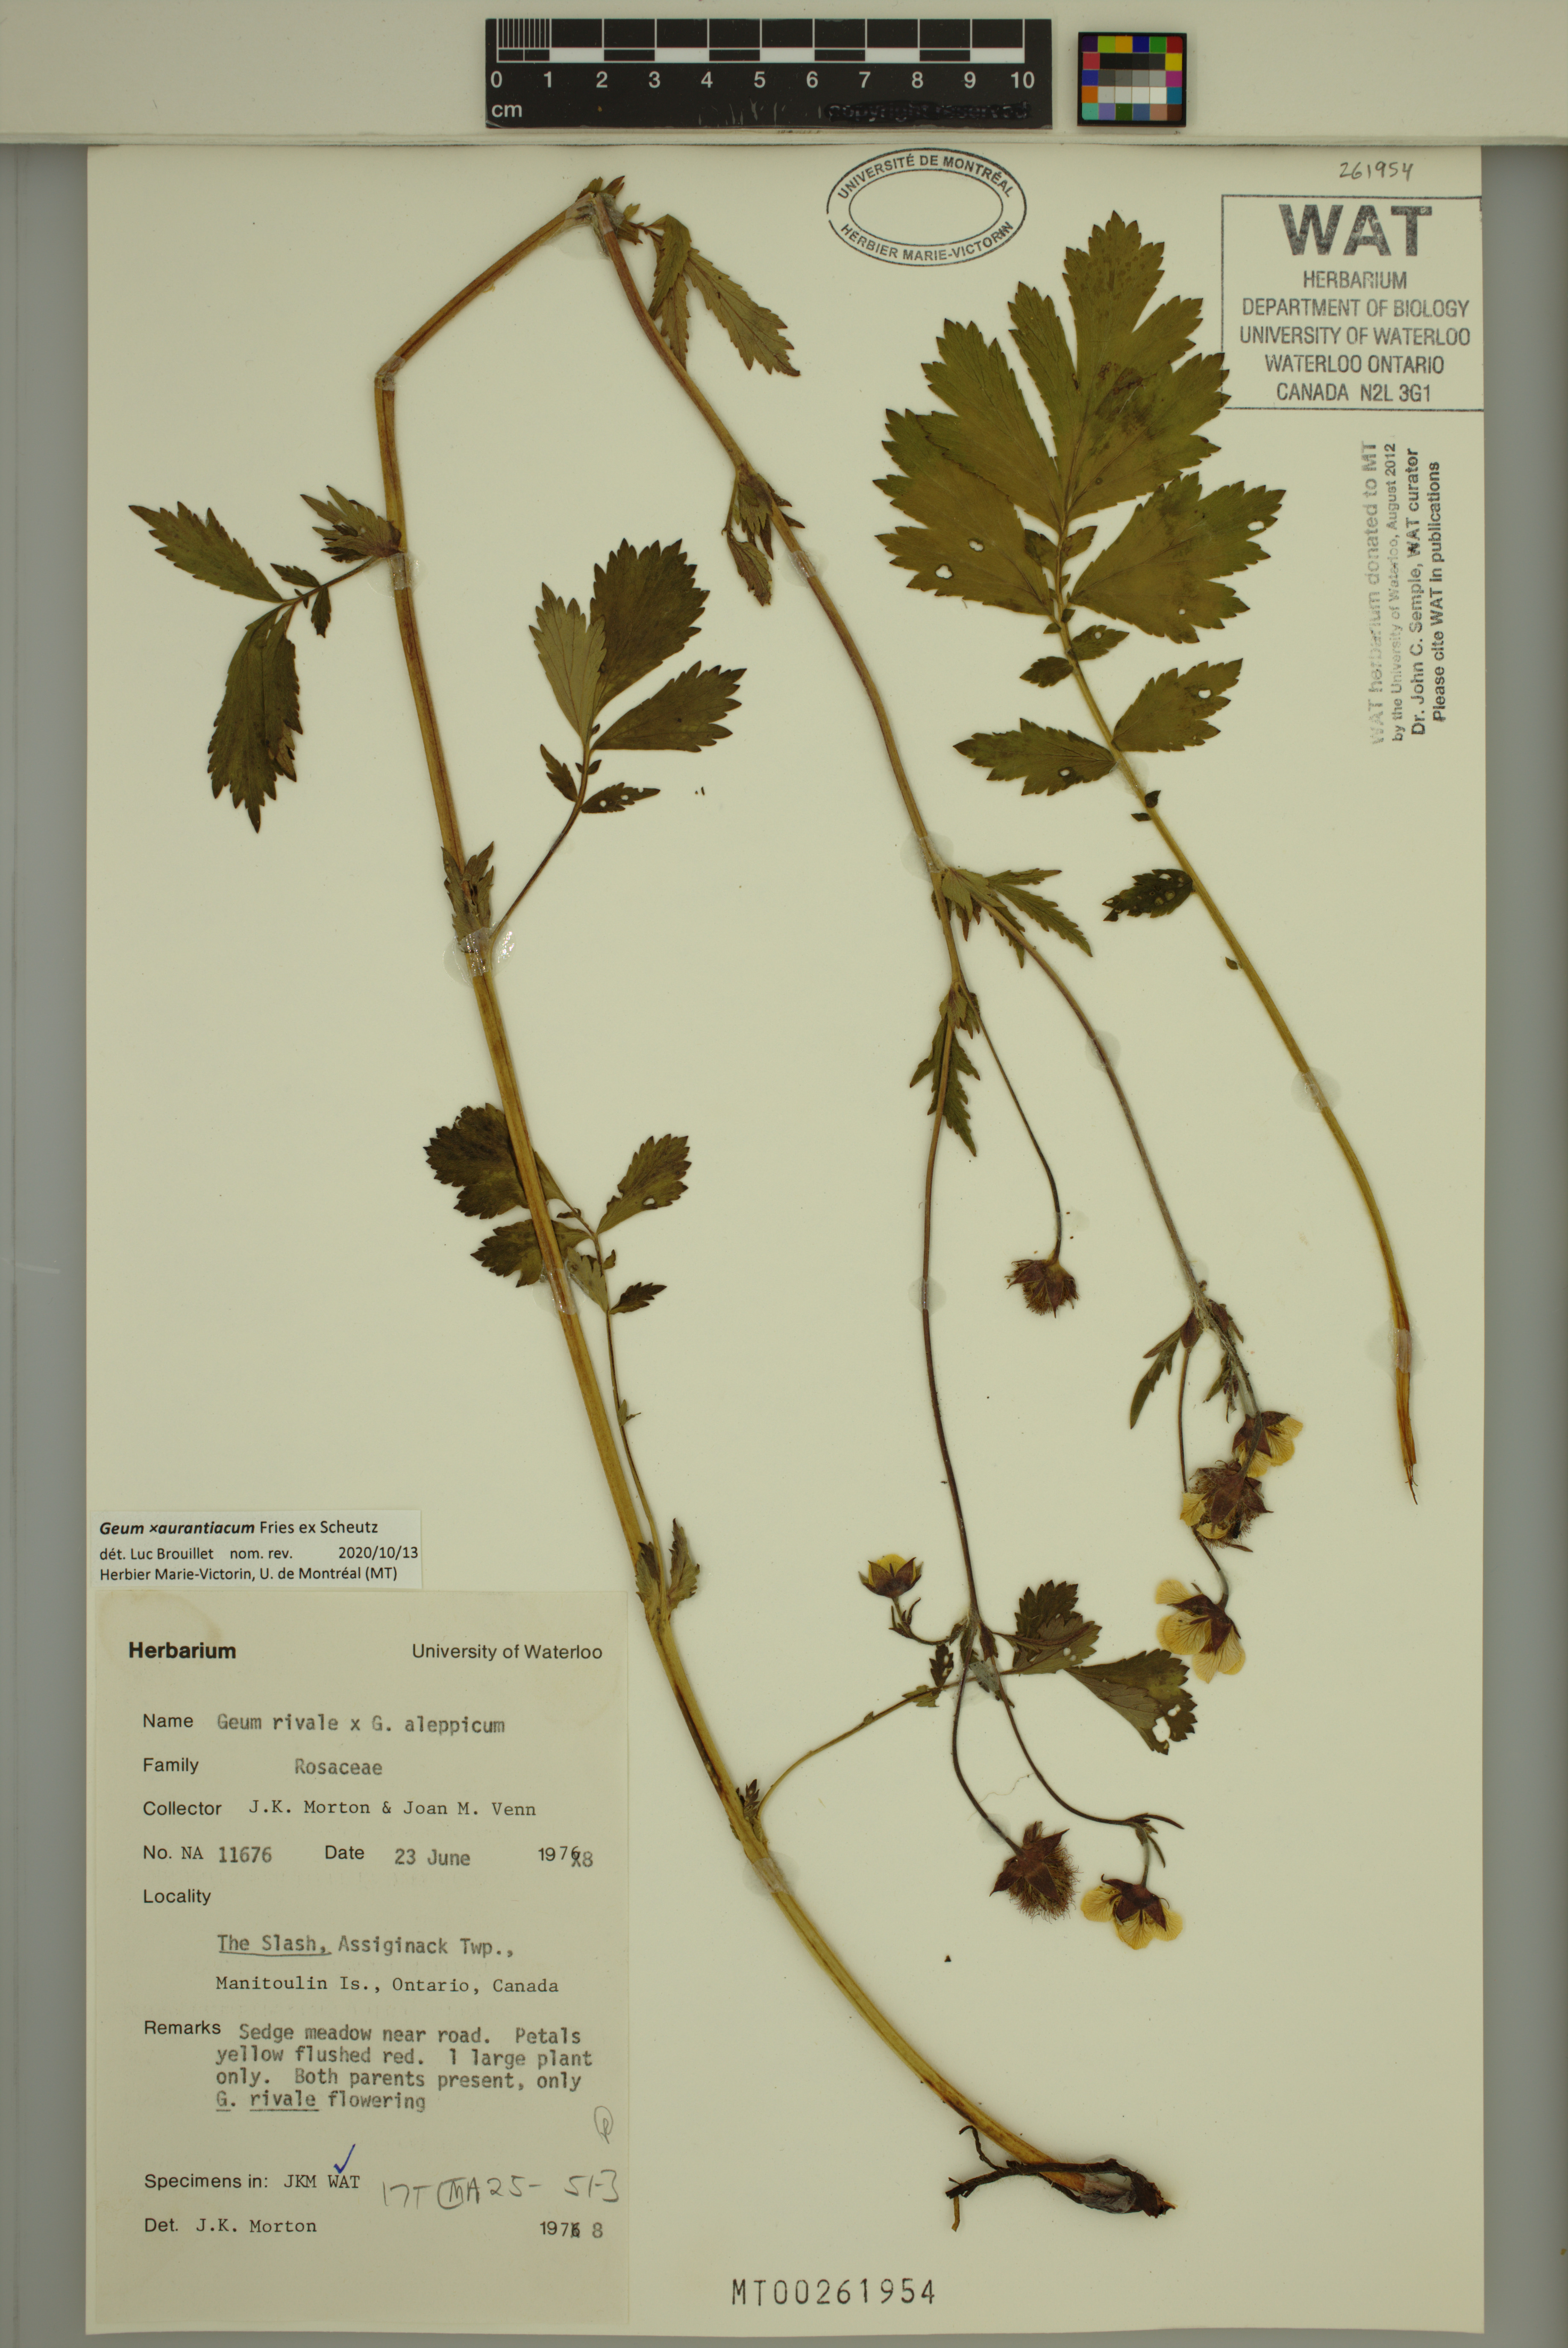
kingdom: Plantae
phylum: Tracheophyta
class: Magnoliopsida
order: Rosales
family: Rosaceae
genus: Geum
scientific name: Geum aurantiacum
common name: Orange avens
